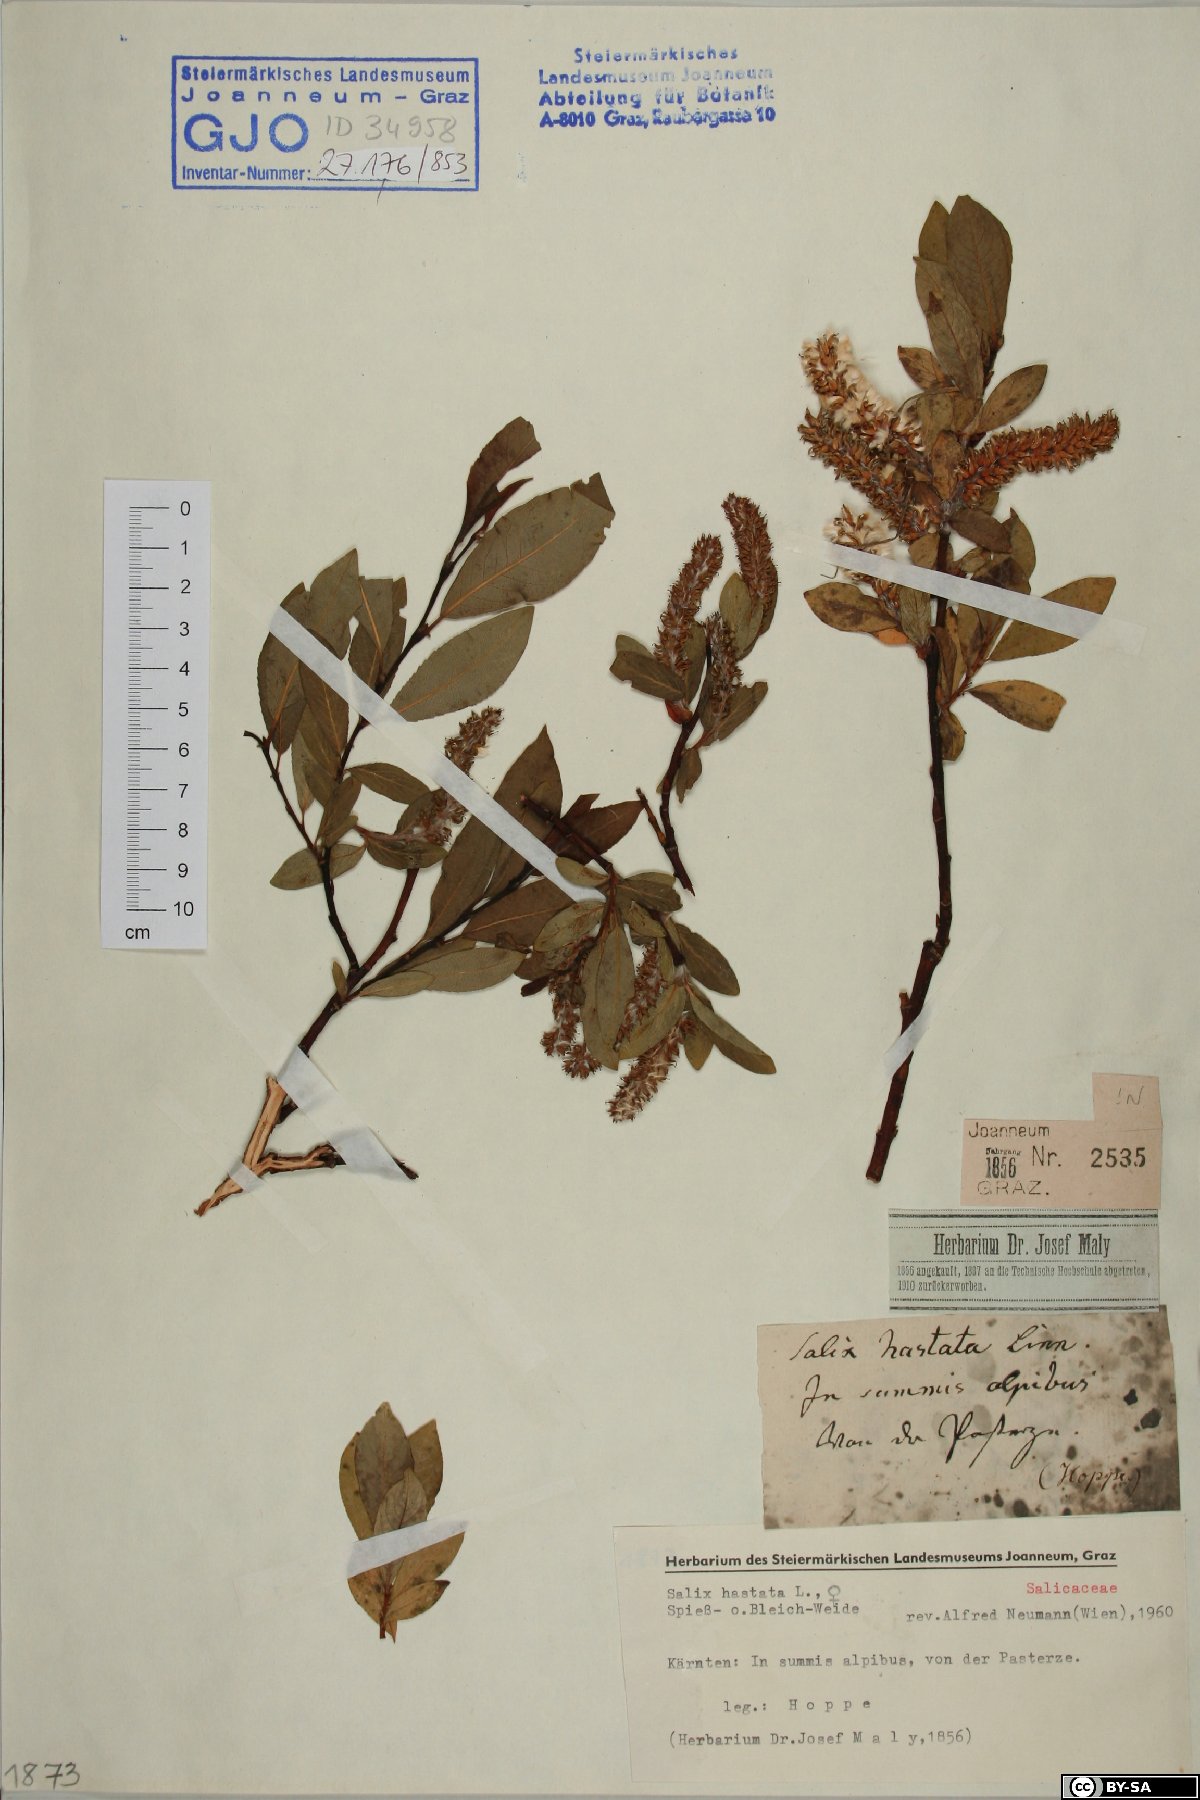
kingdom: Plantae
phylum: Tracheophyta
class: Magnoliopsida
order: Malpighiales
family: Salicaceae
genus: Salix
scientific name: Salix hastata
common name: Halberd willow
